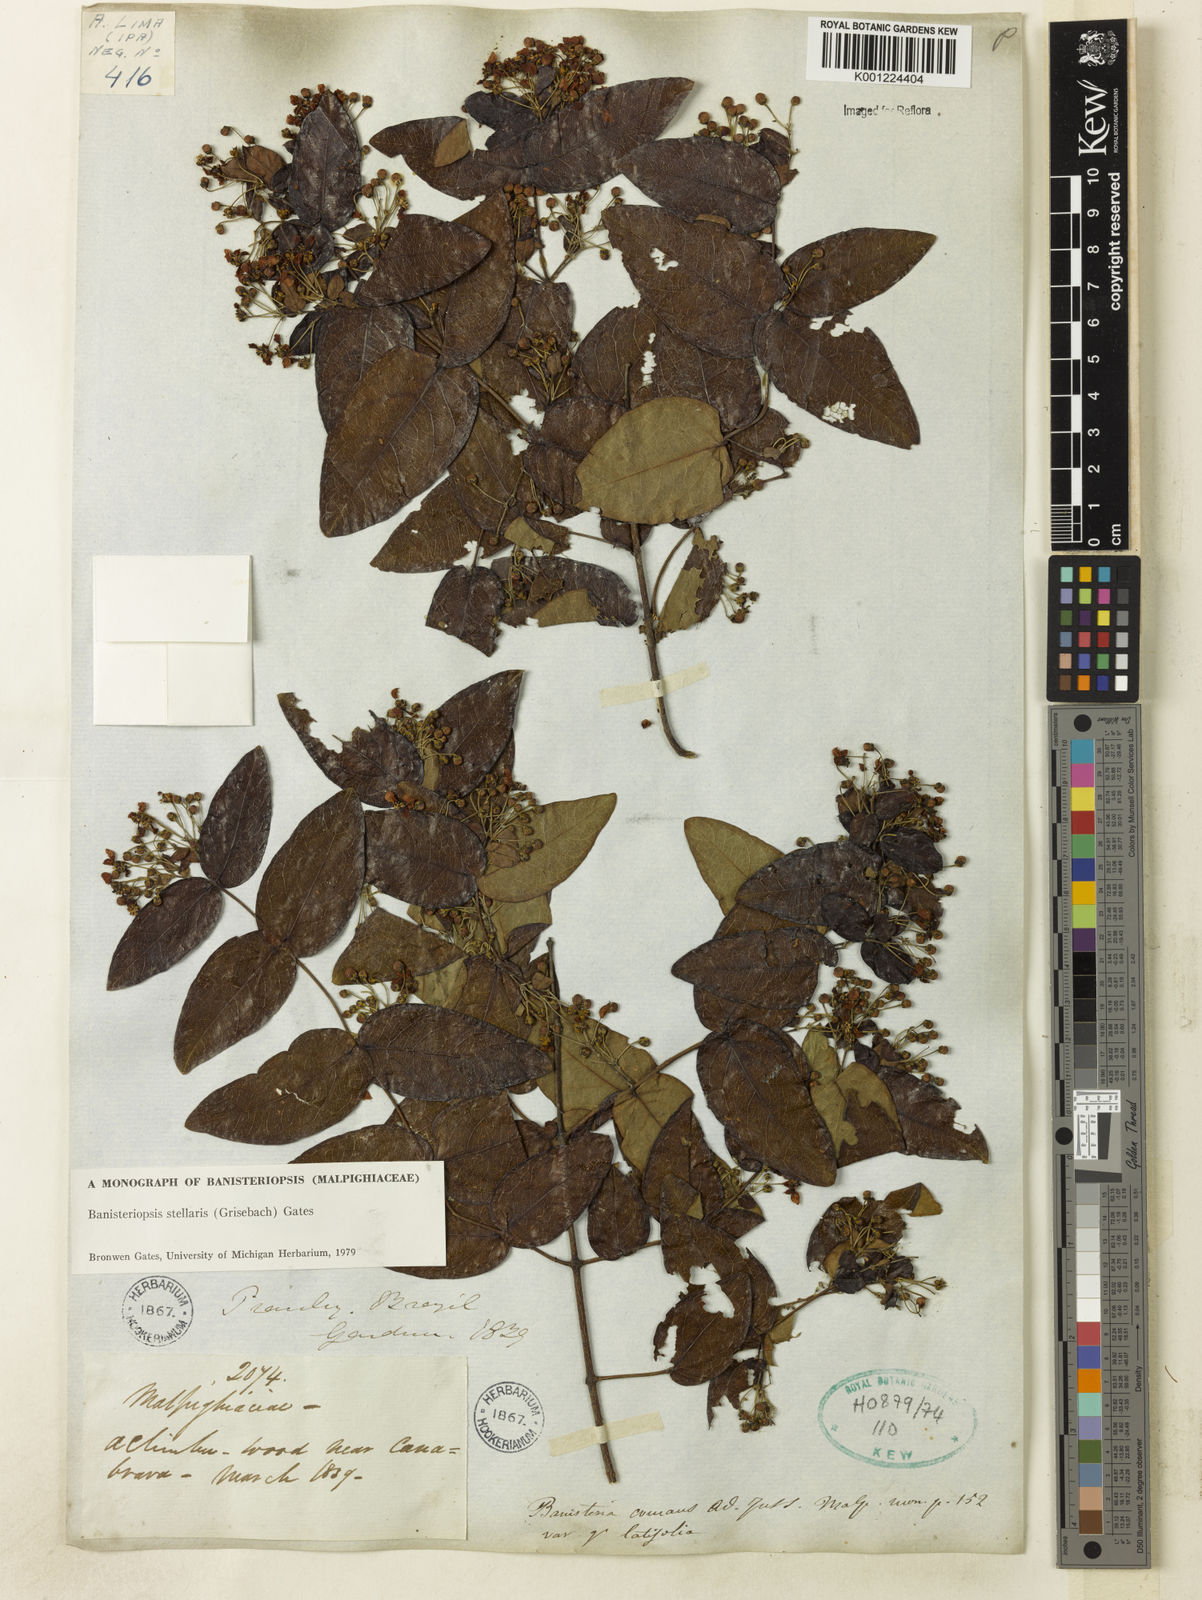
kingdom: Plantae
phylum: Tracheophyta
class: Magnoliopsida
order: Malpighiales
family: Malpighiaceae
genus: Banisteriopsis
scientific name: Banisteriopsis stellaris
